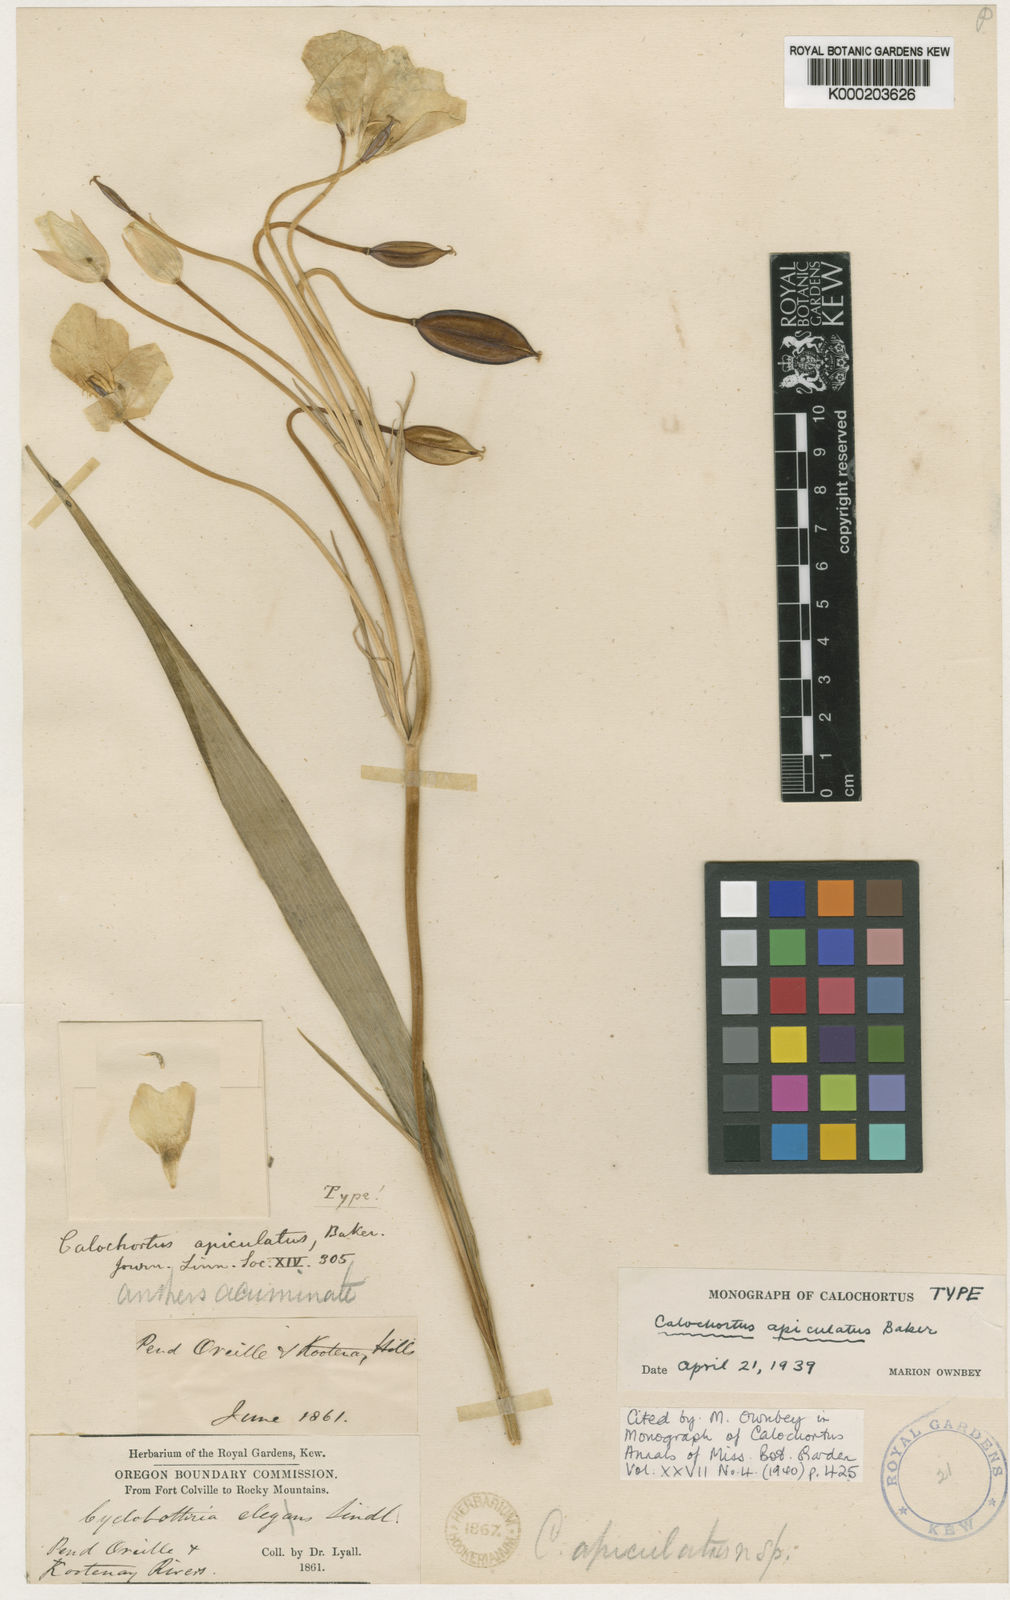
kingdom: Plantae
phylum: Tracheophyta
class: Liliopsida
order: Liliales
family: Liliaceae
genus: Calochortus
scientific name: Calochortus apiculatus
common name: Baker's mariposa lily
